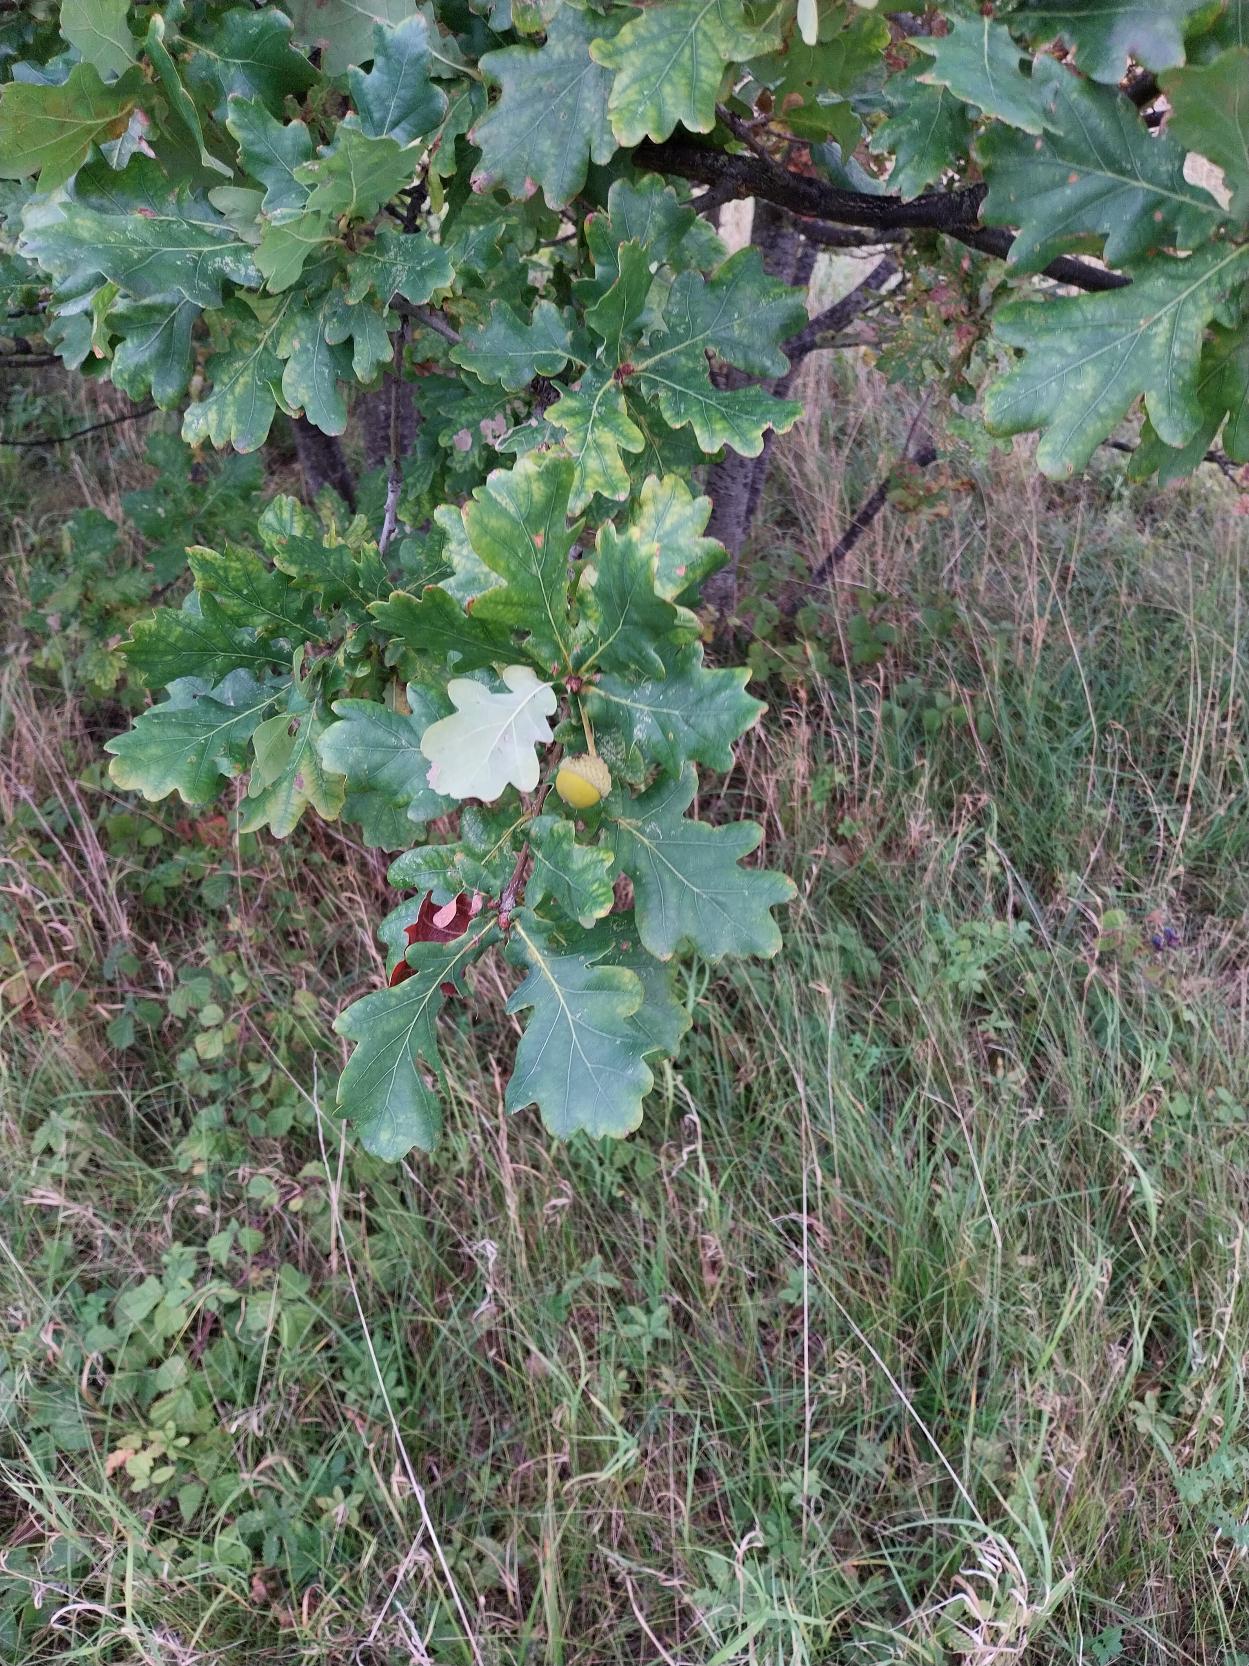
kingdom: Plantae
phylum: Tracheophyta
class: Magnoliopsida
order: Fagales
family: Fagaceae
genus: Quercus
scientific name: Quercus robur
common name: Stilk-eg/almindelig eg
